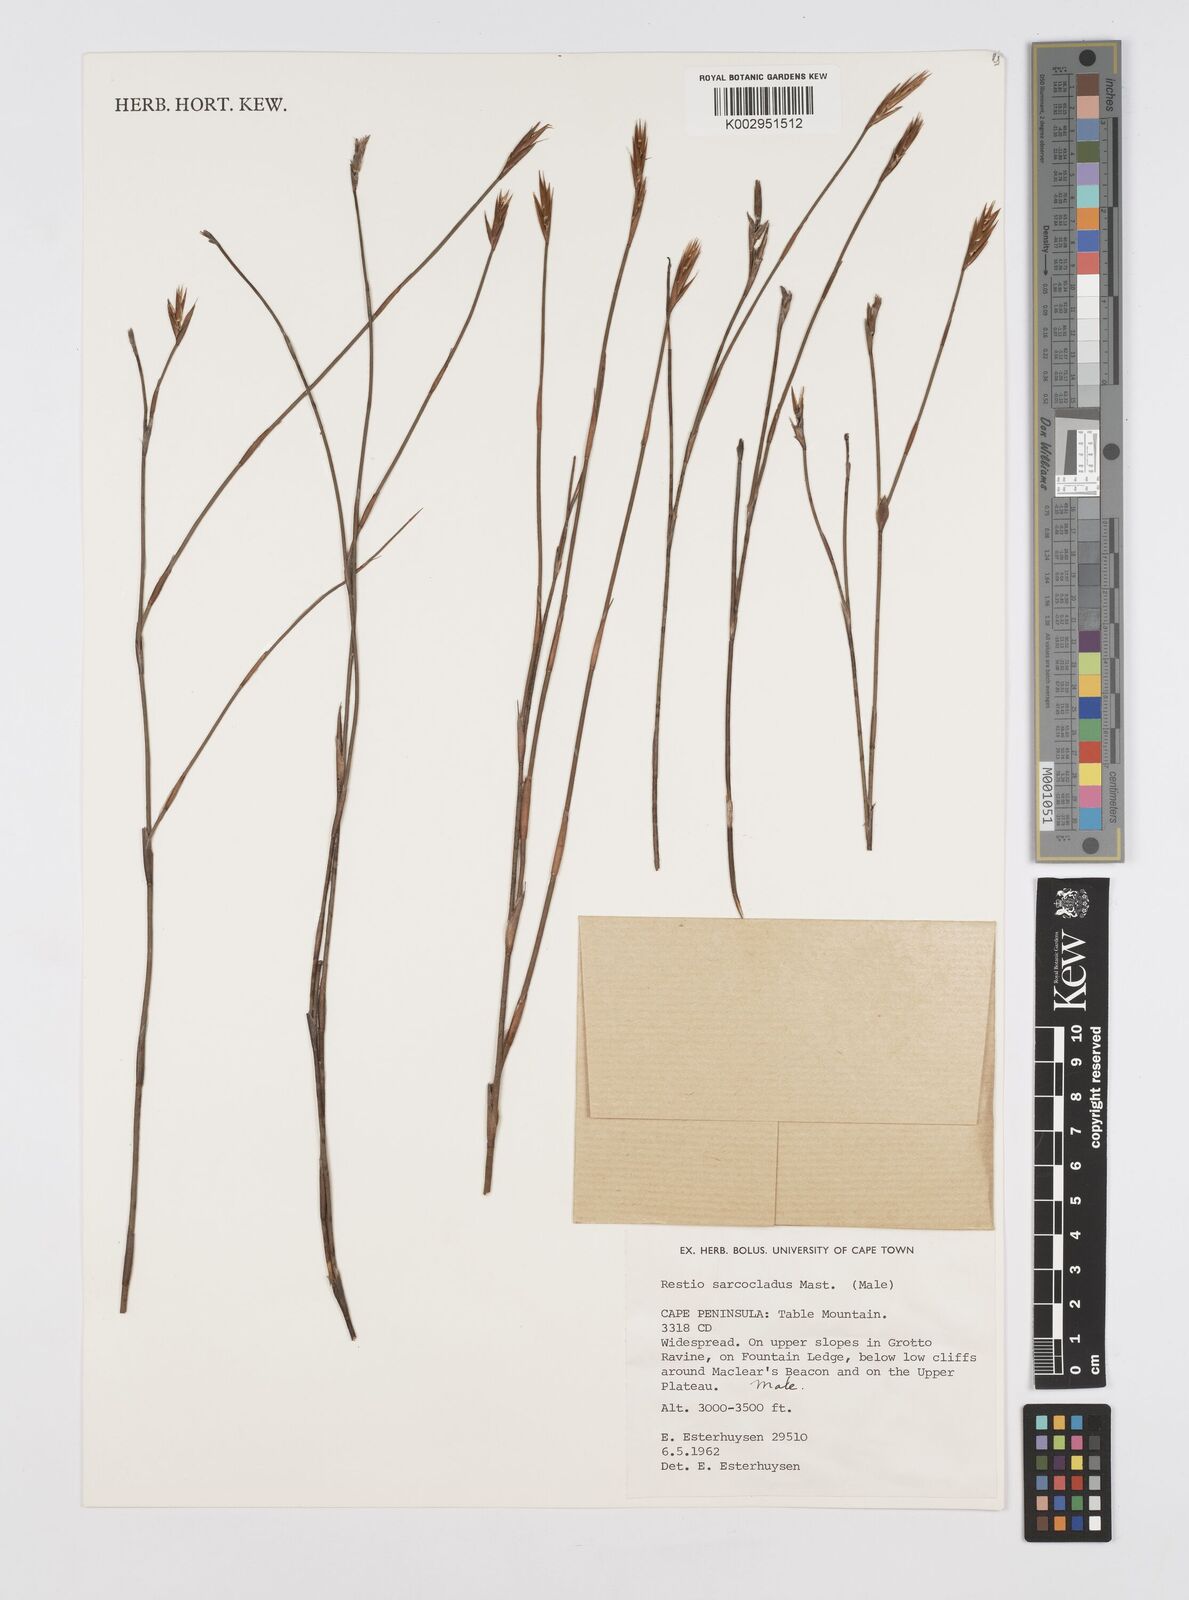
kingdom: Plantae
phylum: Tracheophyta
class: Liliopsida
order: Poales
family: Restionaceae
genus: Restio
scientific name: Restio saroclados
